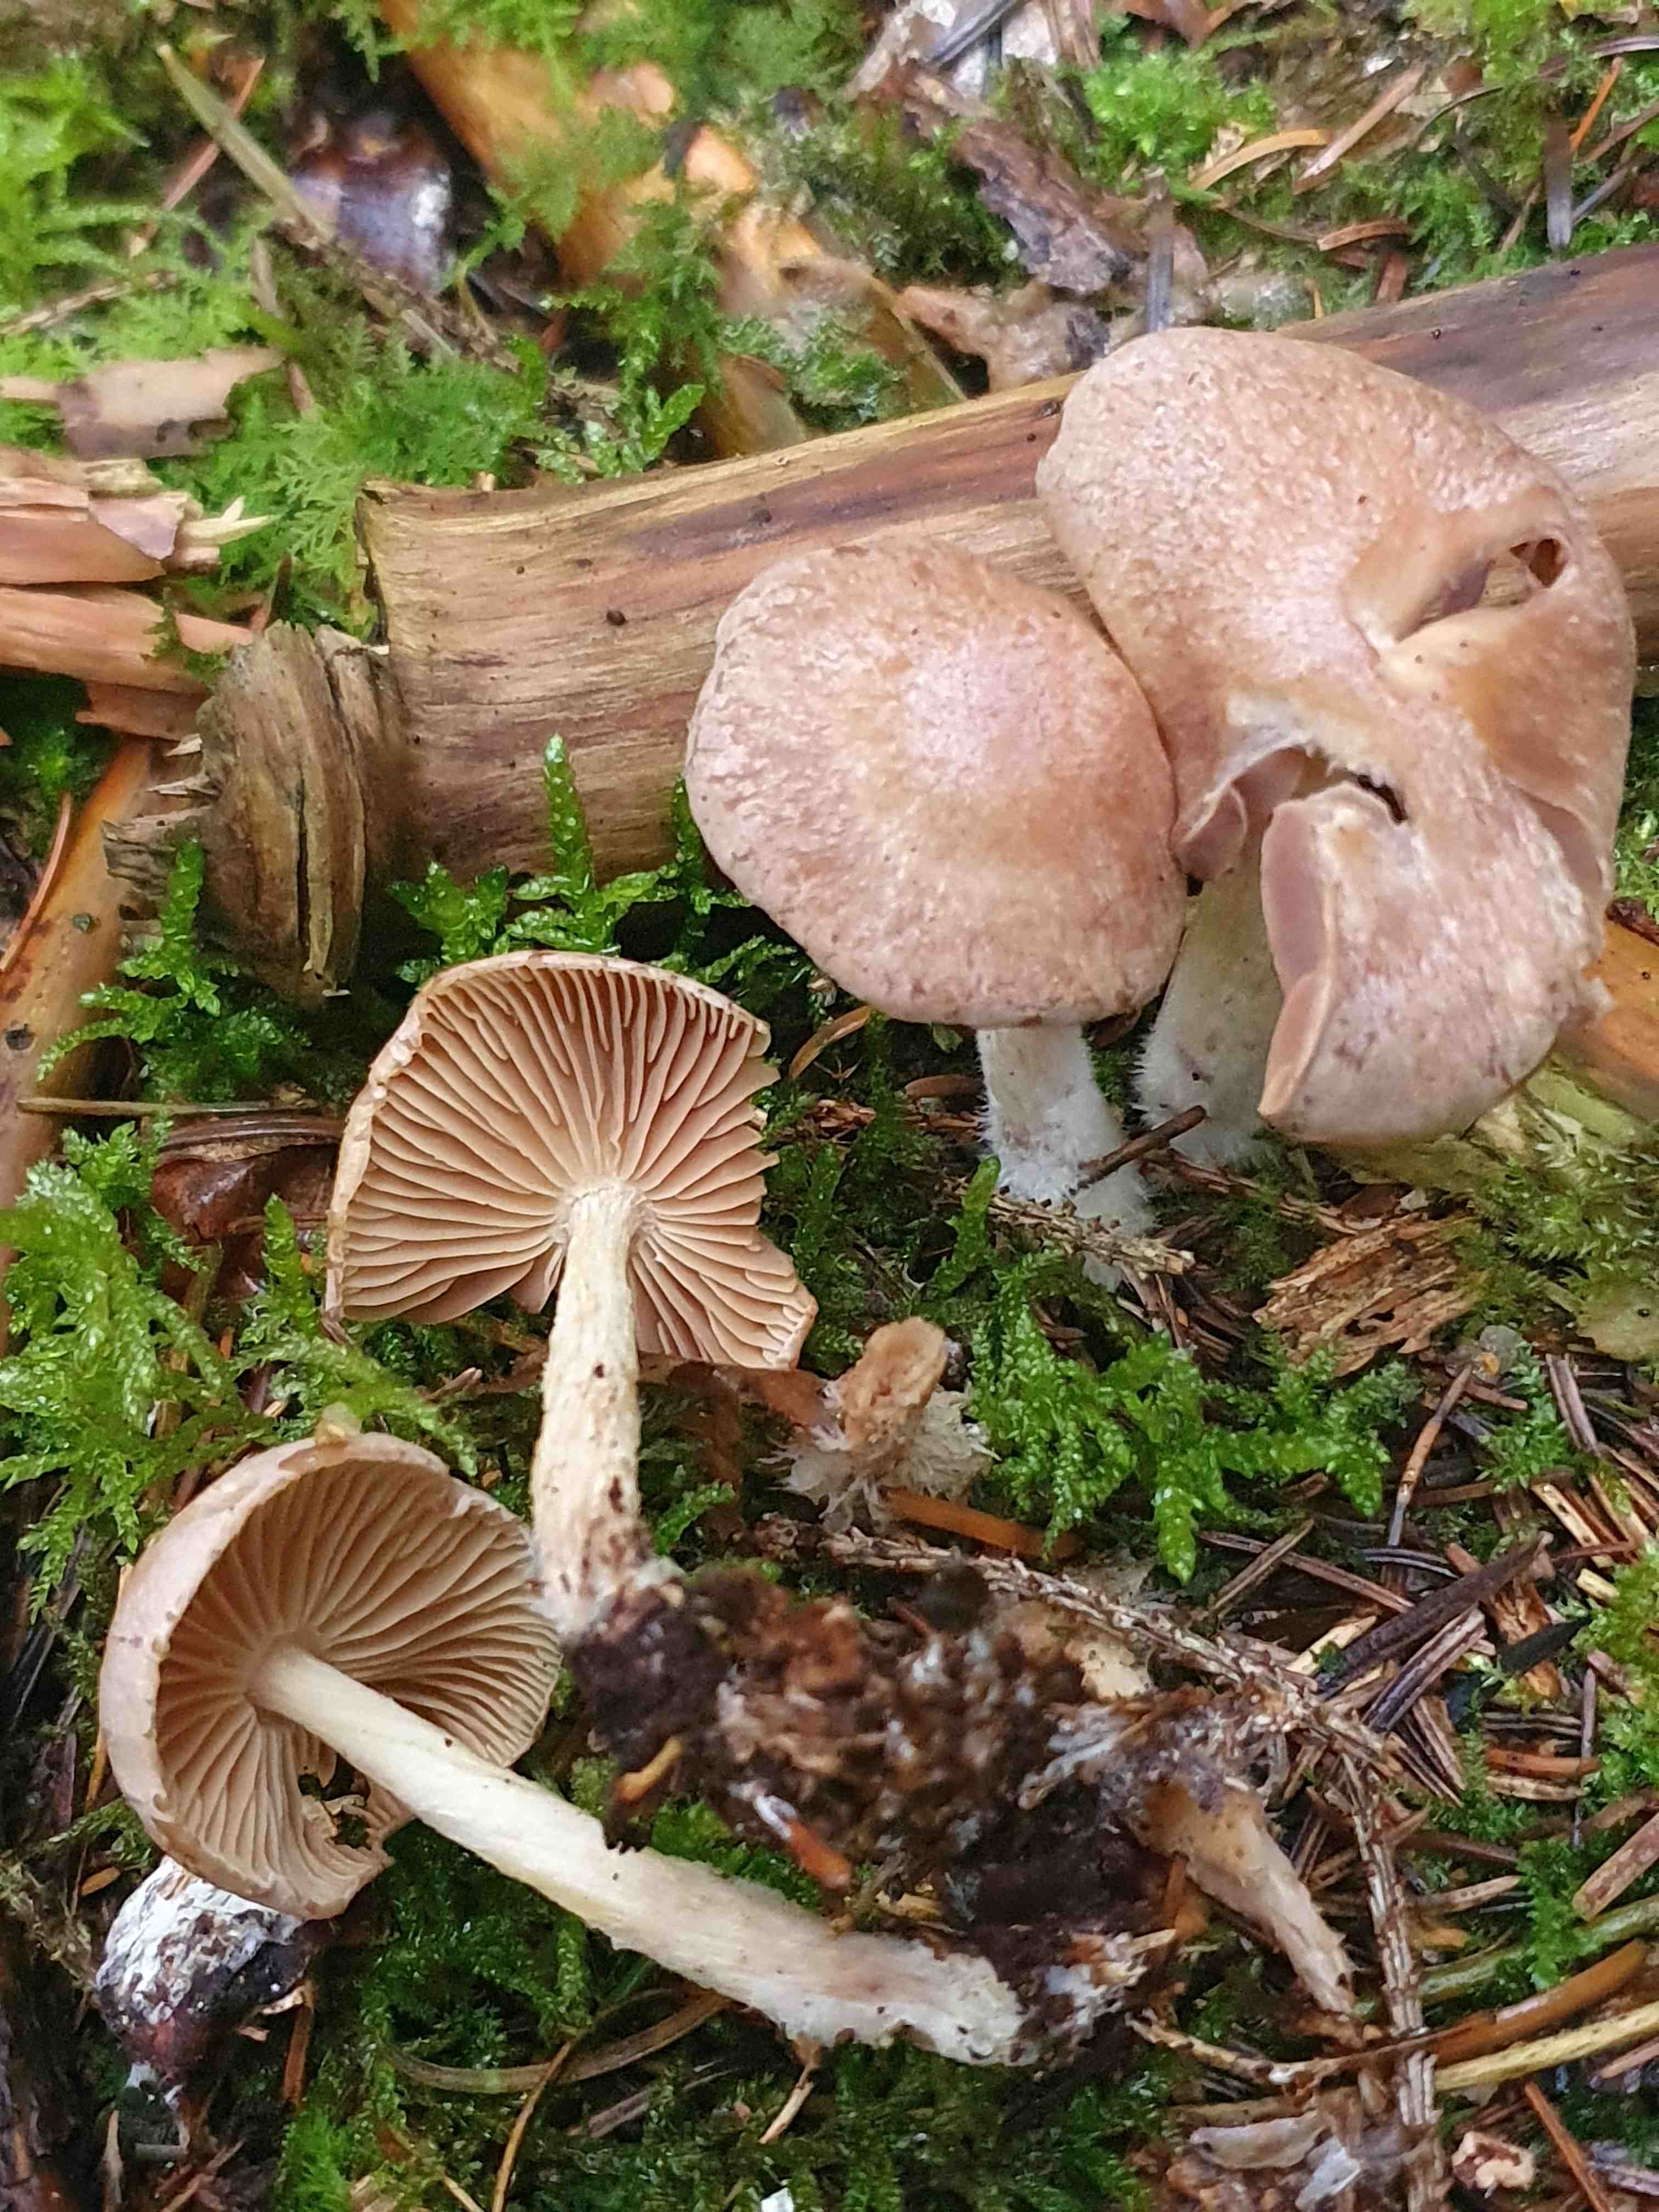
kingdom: Fungi
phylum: Basidiomycota
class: Agaricomycetes
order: Agaricales
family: Omphalotaceae
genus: Collybiopsis
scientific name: Collybiopsis peronata
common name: bestøvlet fladhat
